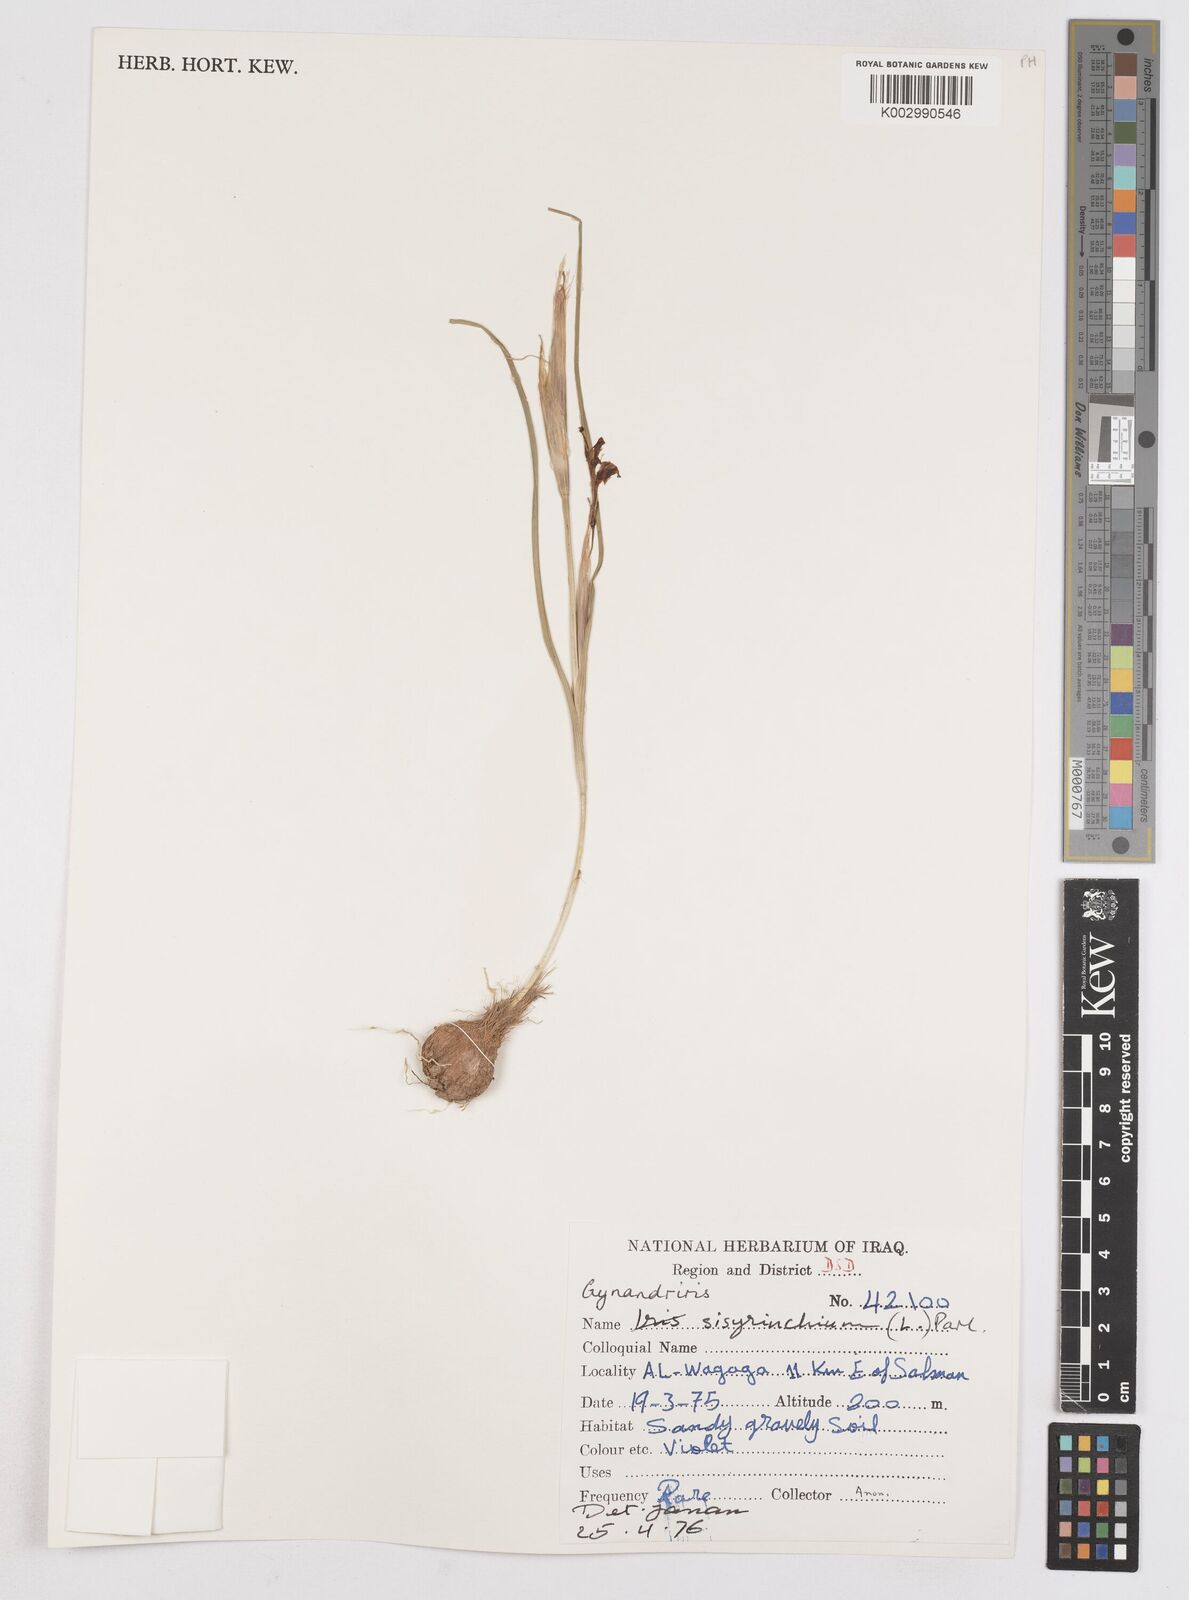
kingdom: Plantae
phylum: Tracheophyta
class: Liliopsida
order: Asparagales
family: Iridaceae
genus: Moraea
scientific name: Moraea sisyrinchium
